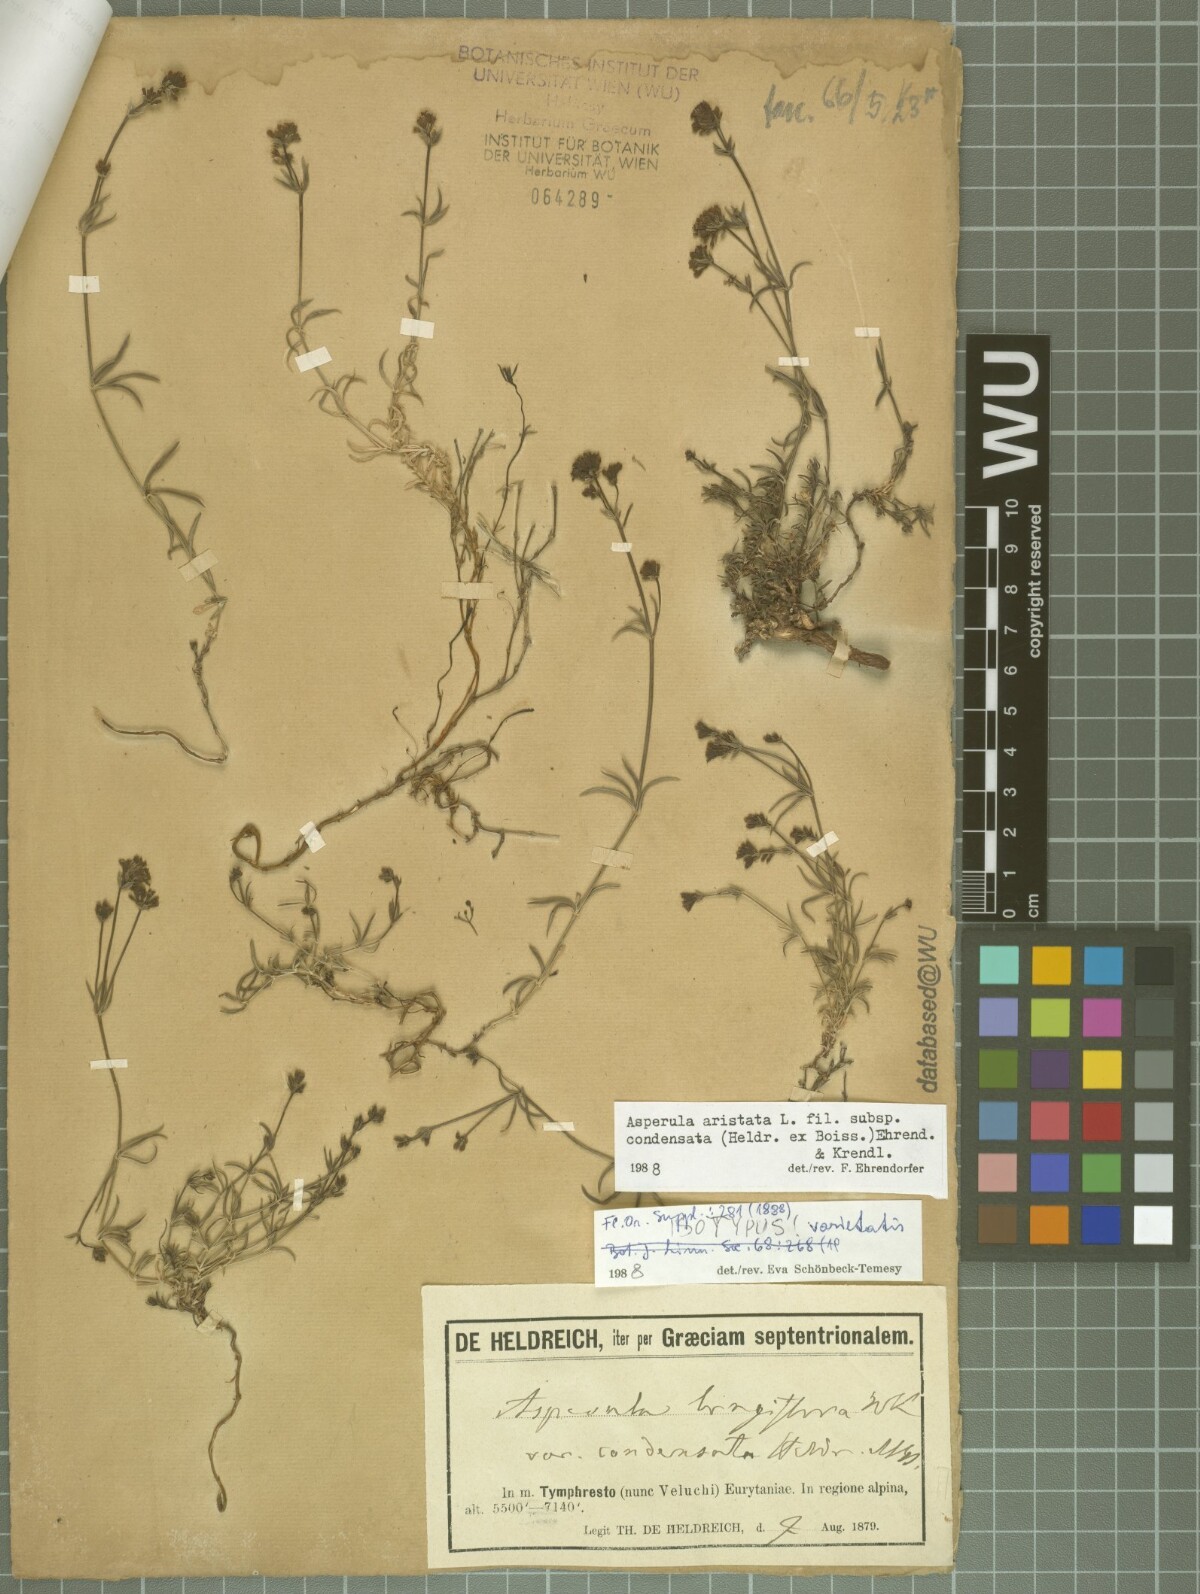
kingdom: Plantae
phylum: Tracheophyta
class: Magnoliopsida
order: Gentianales
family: Rubiaceae
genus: Cynanchica
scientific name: Cynanchica aristata
